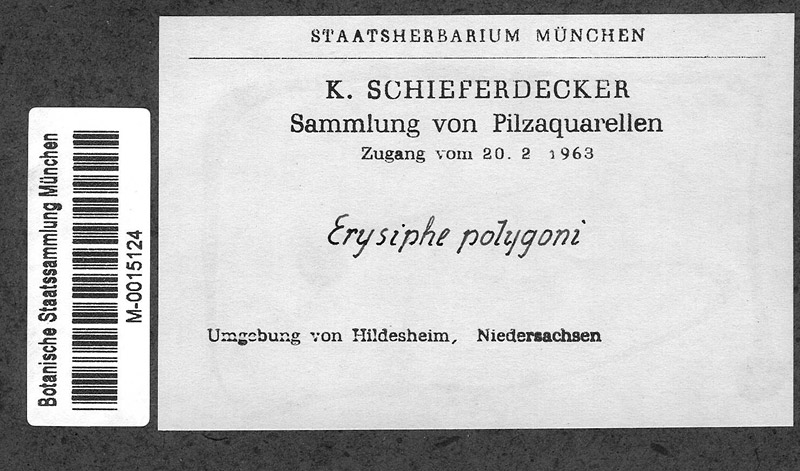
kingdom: Plantae
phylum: Tracheophyta
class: Magnoliopsida
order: Apiales
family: Apiaceae
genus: Heracleum
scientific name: Heracleum
